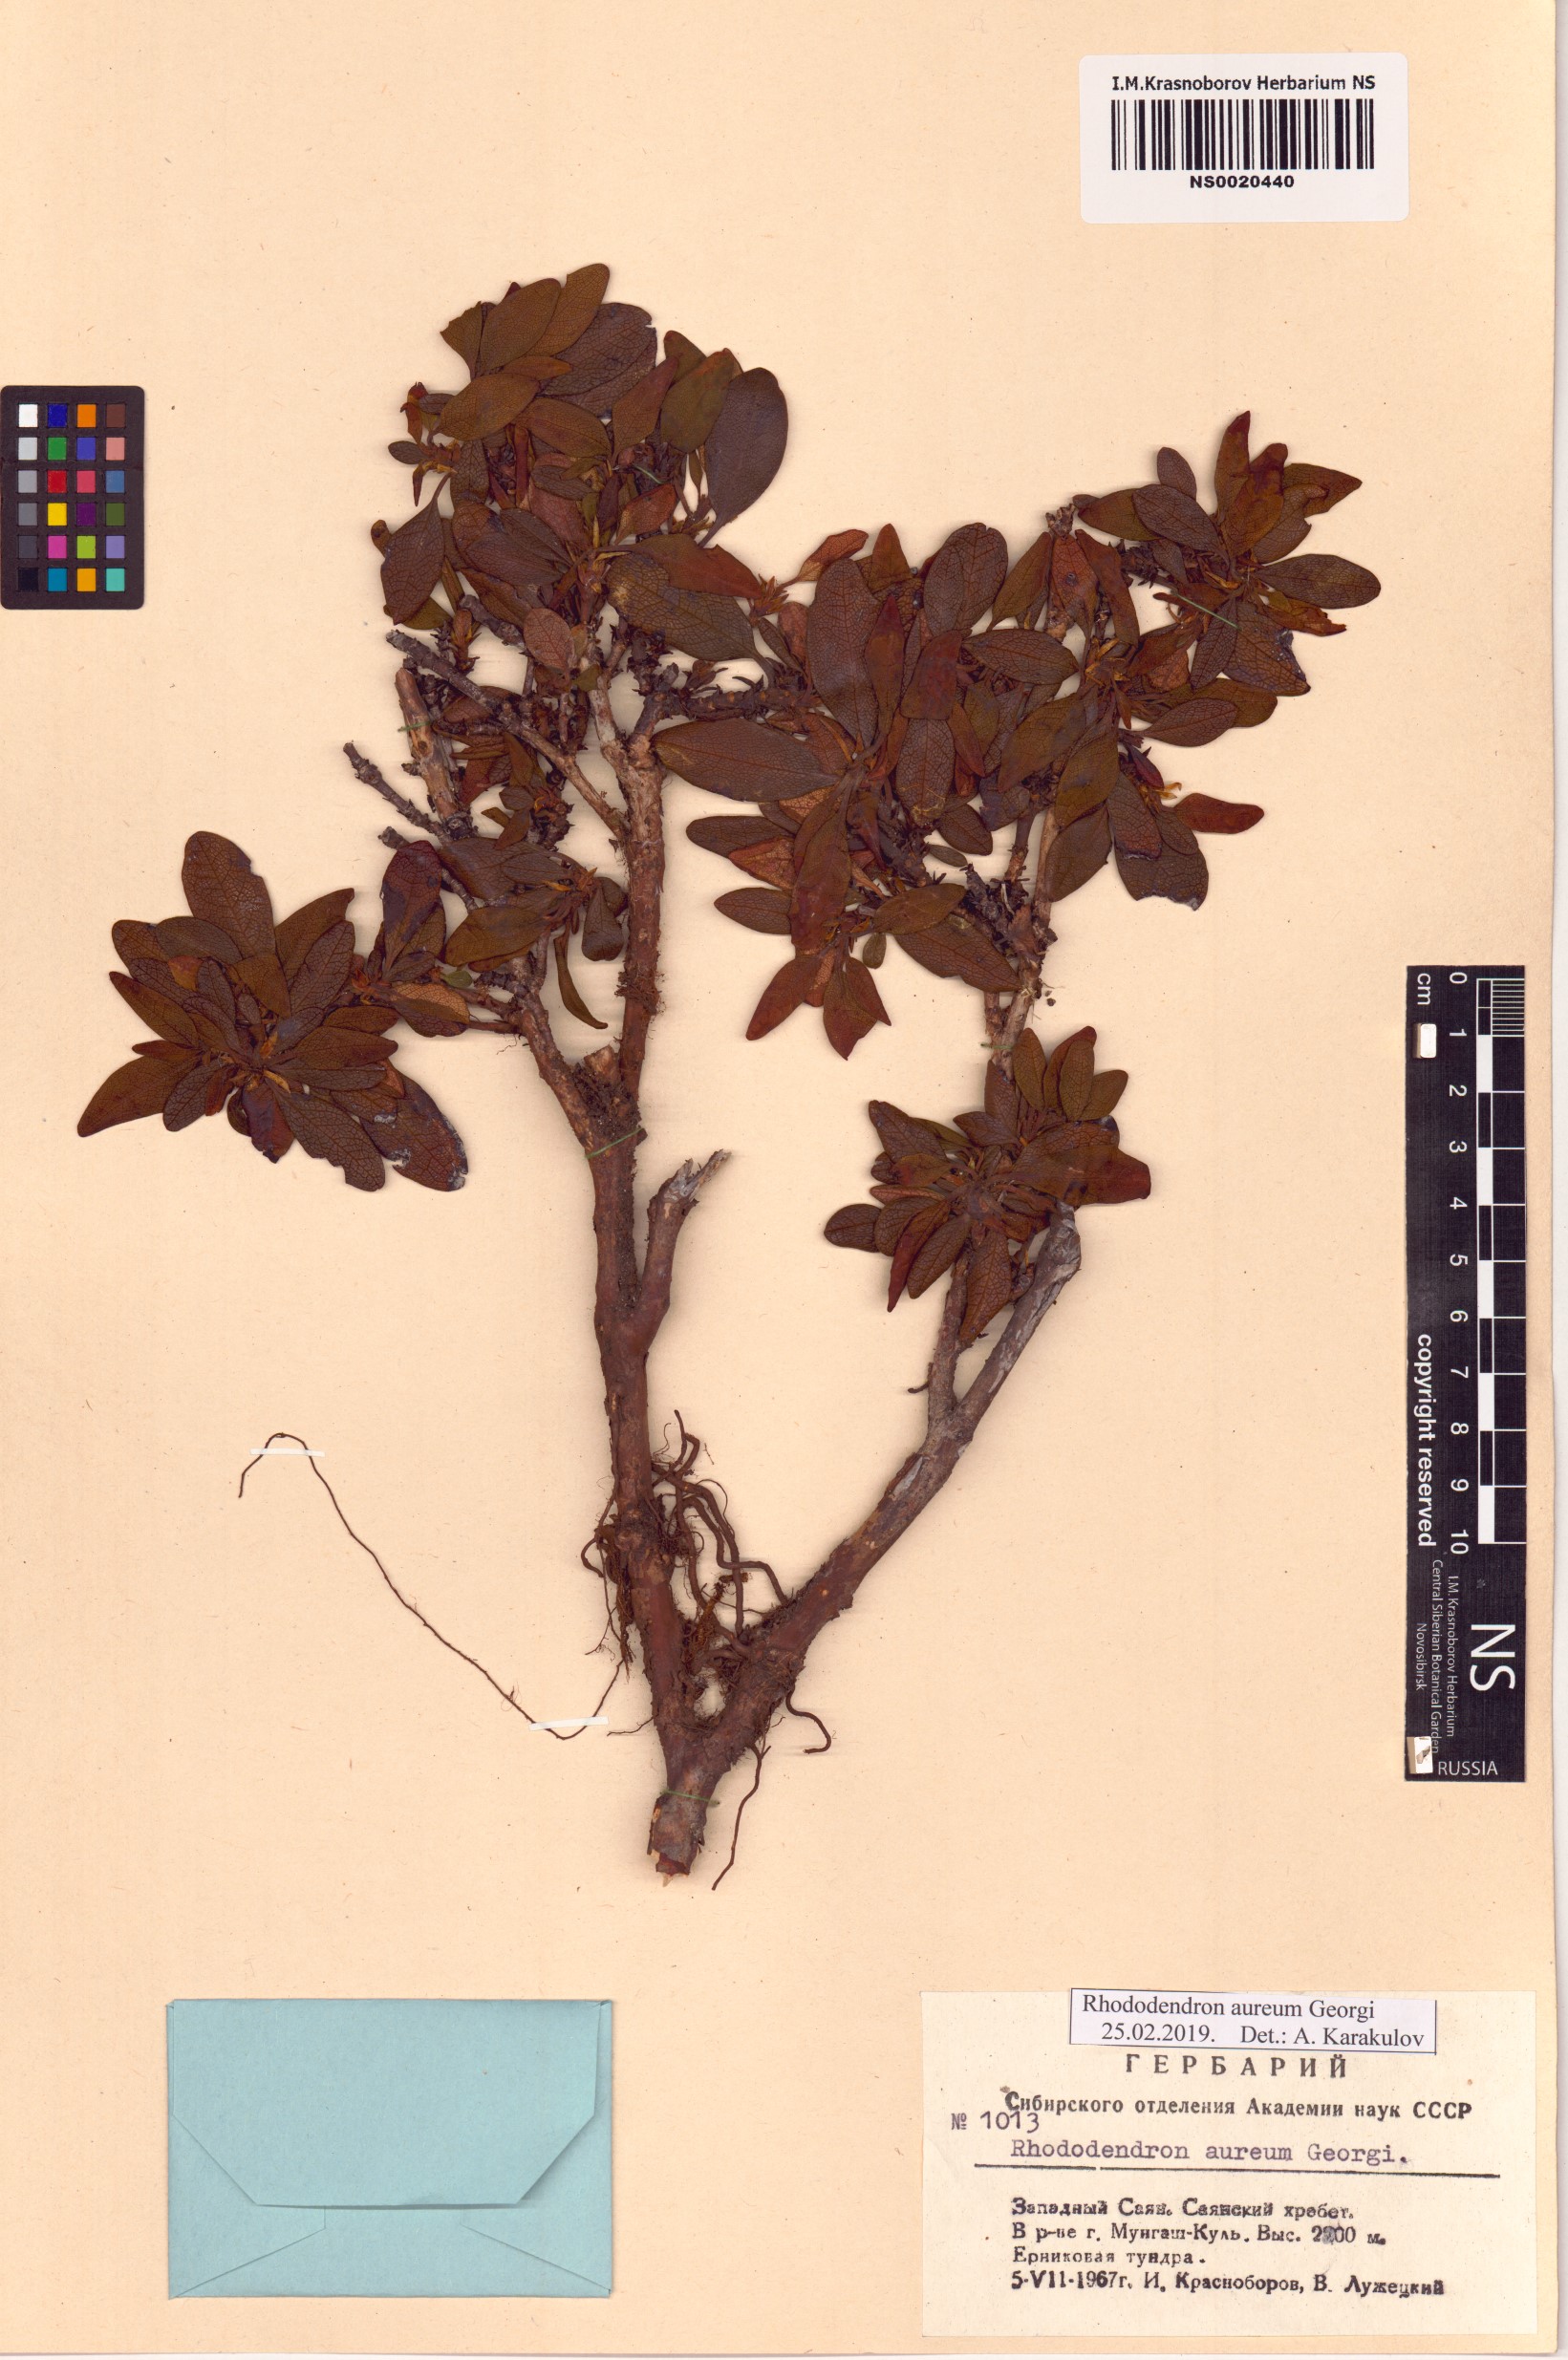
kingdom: Plantae
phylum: Tracheophyta
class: Magnoliopsida
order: Ericales
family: Ericaceae
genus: Rhododendron
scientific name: Rhododendron aureum
